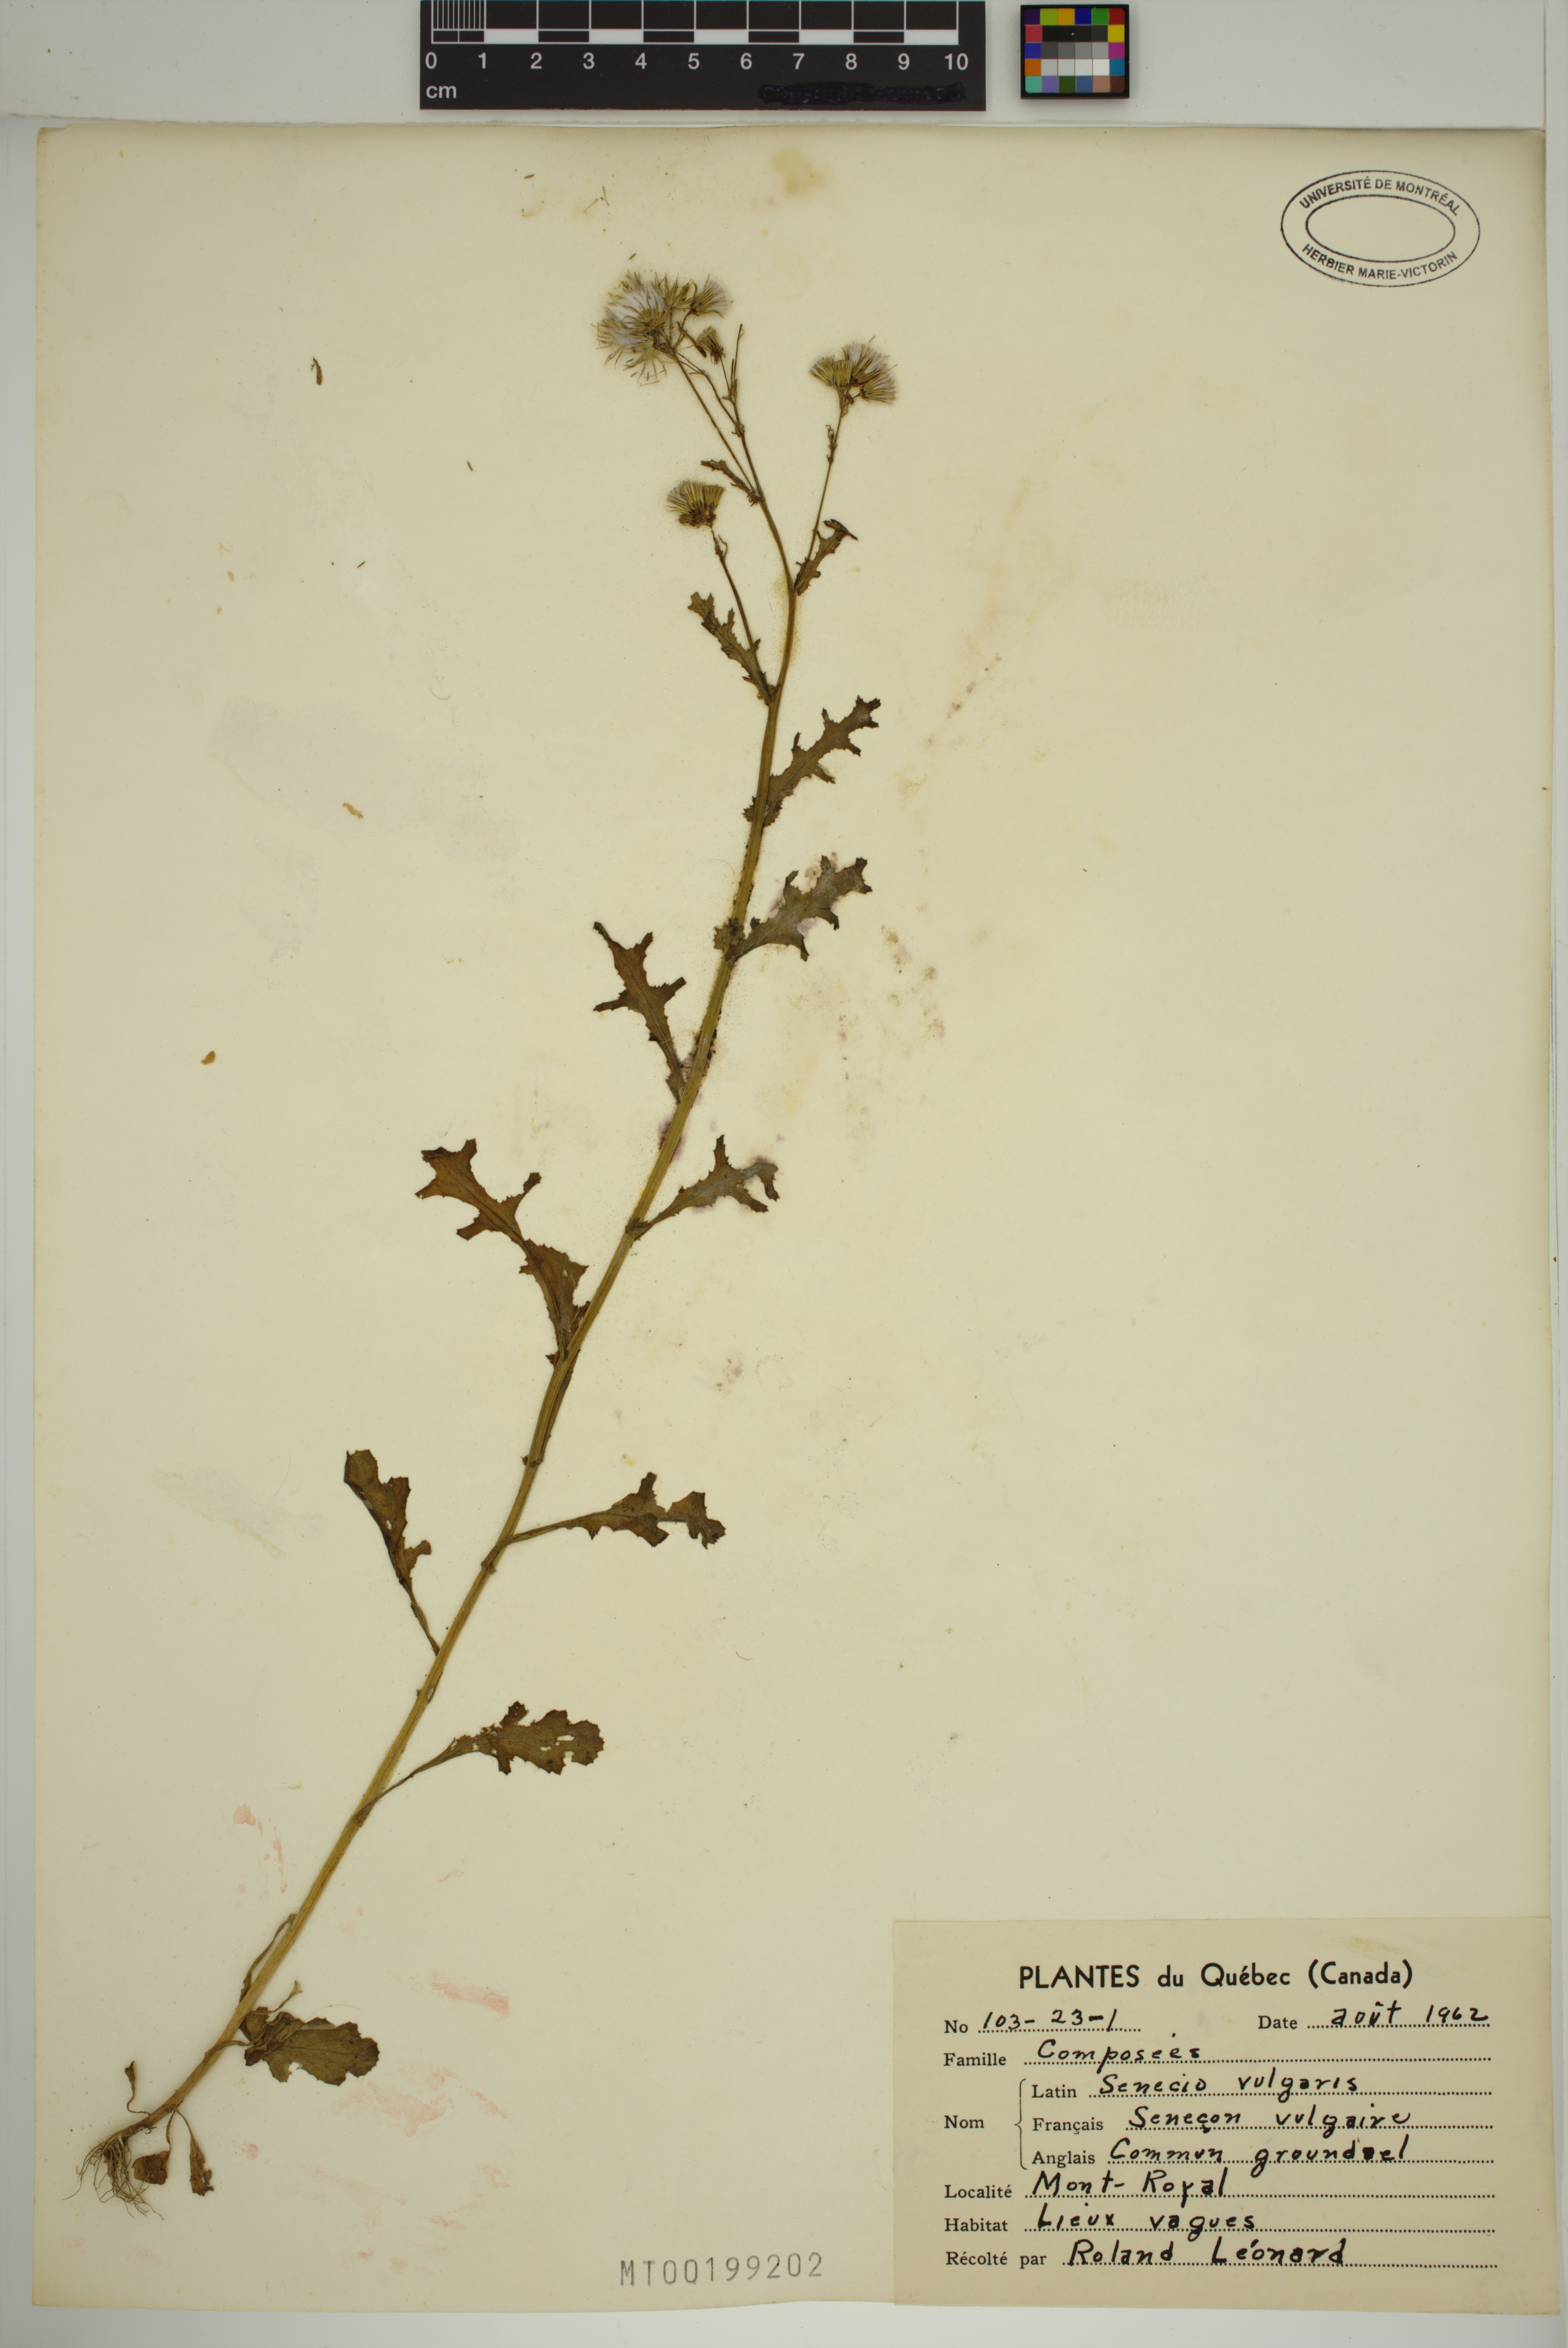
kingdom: Plantae
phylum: Tracheophyta
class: Magnoliopsida
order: Asterales
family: Asteraceae
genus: Senecio
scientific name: Senecio vulgaris
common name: Old-man-in-the-spring
